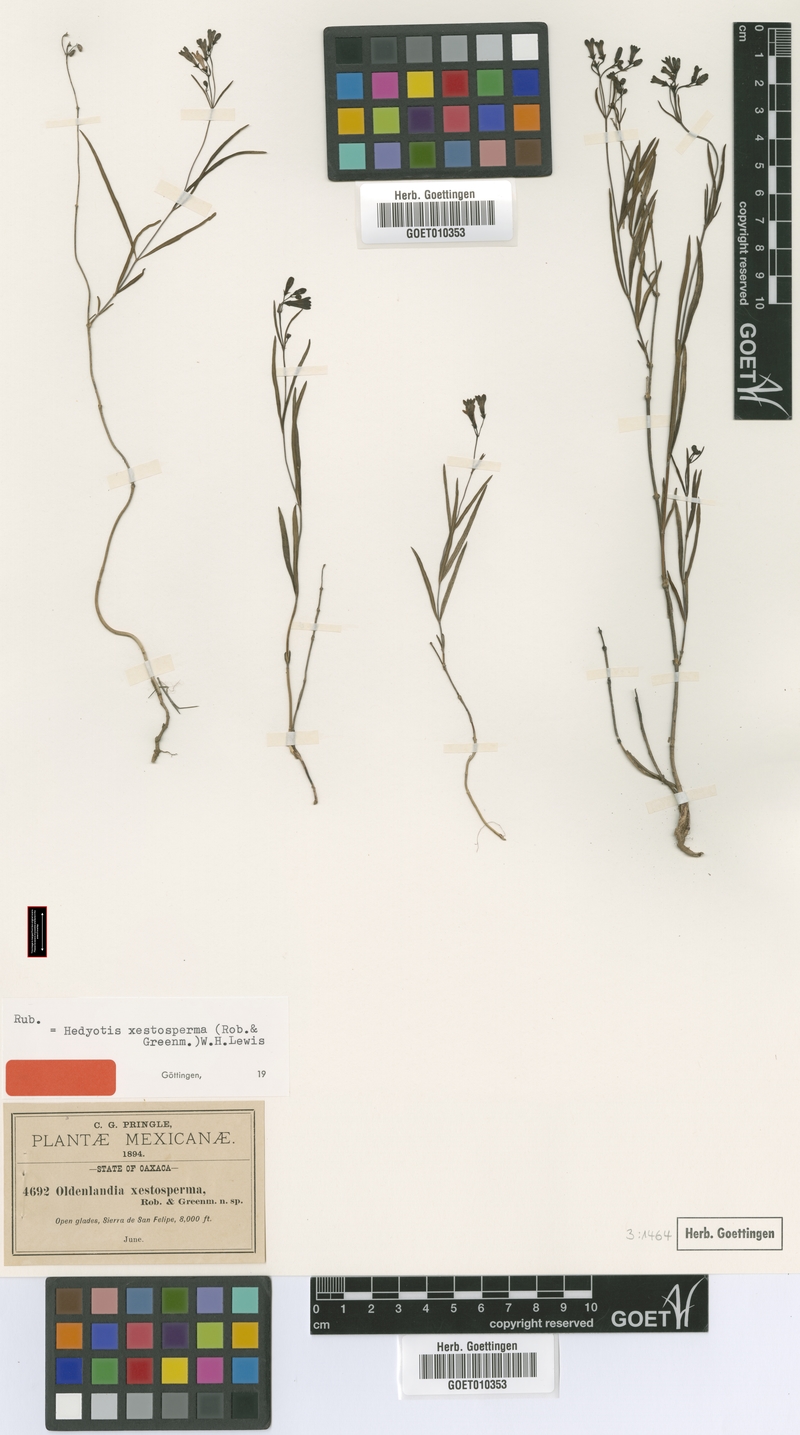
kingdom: Plantae
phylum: Tracheophyta
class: Magnoliopsida
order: Gentianales
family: Rubiaceae
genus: Bouvardia
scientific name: Bouvardia xestosperma
